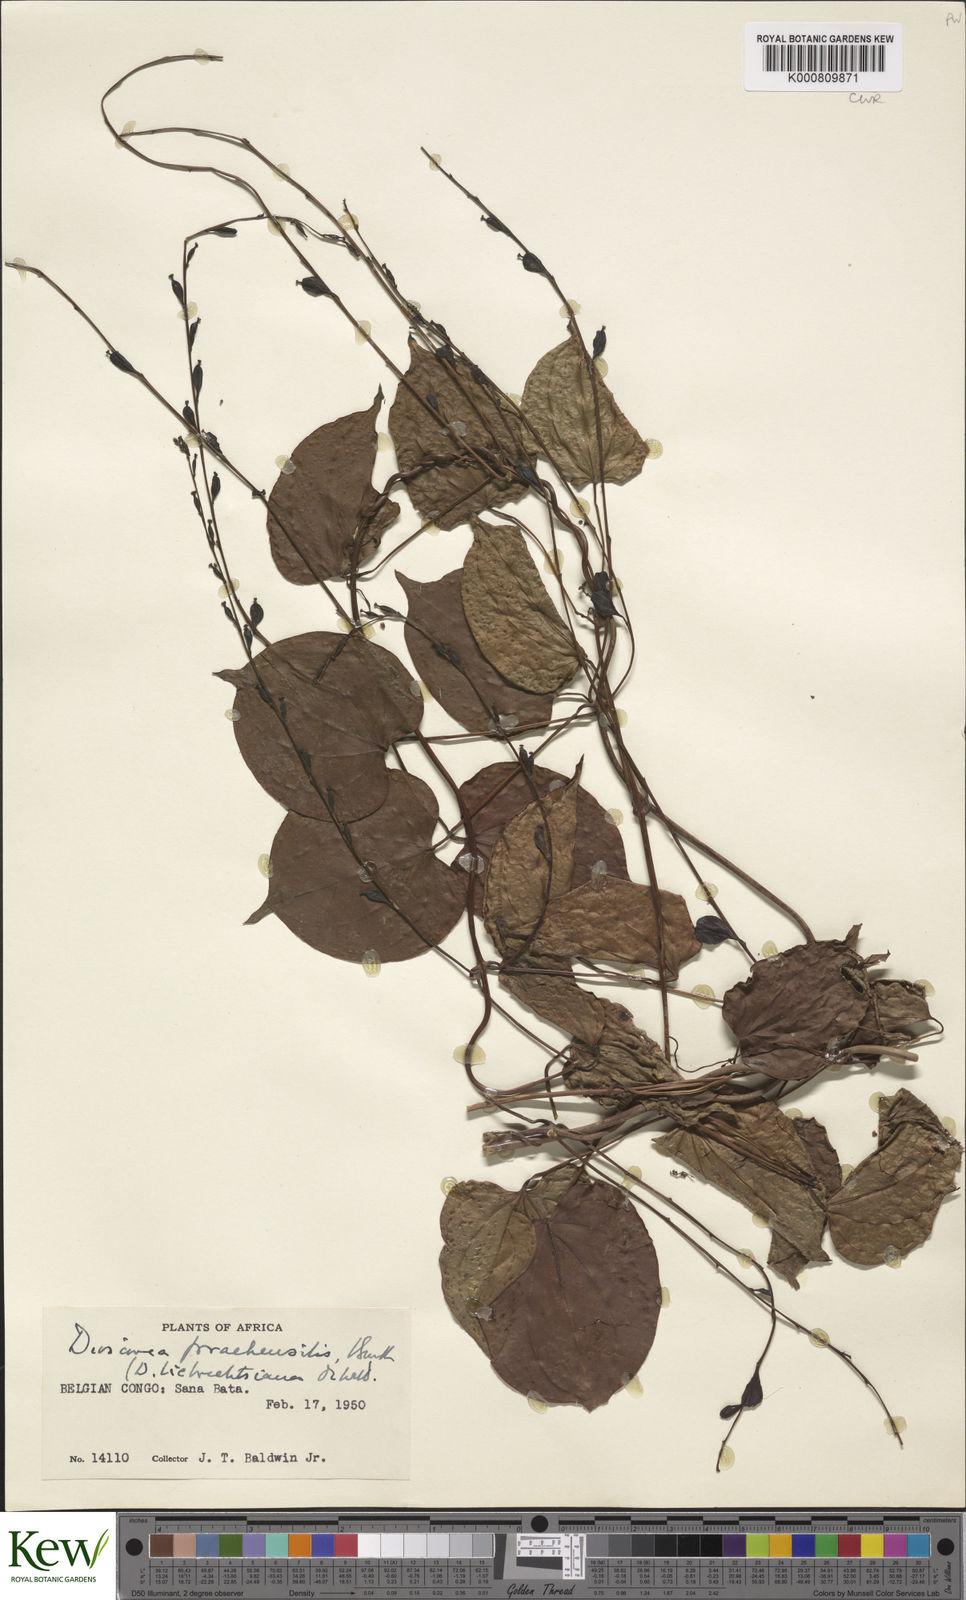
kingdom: Plantae
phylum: Tracheophyta
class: Liliopsida
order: Dioscoreales
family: Dioscoreaceae
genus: Dioscorea
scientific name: Dioscorea praehensilis
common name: Bush yam
